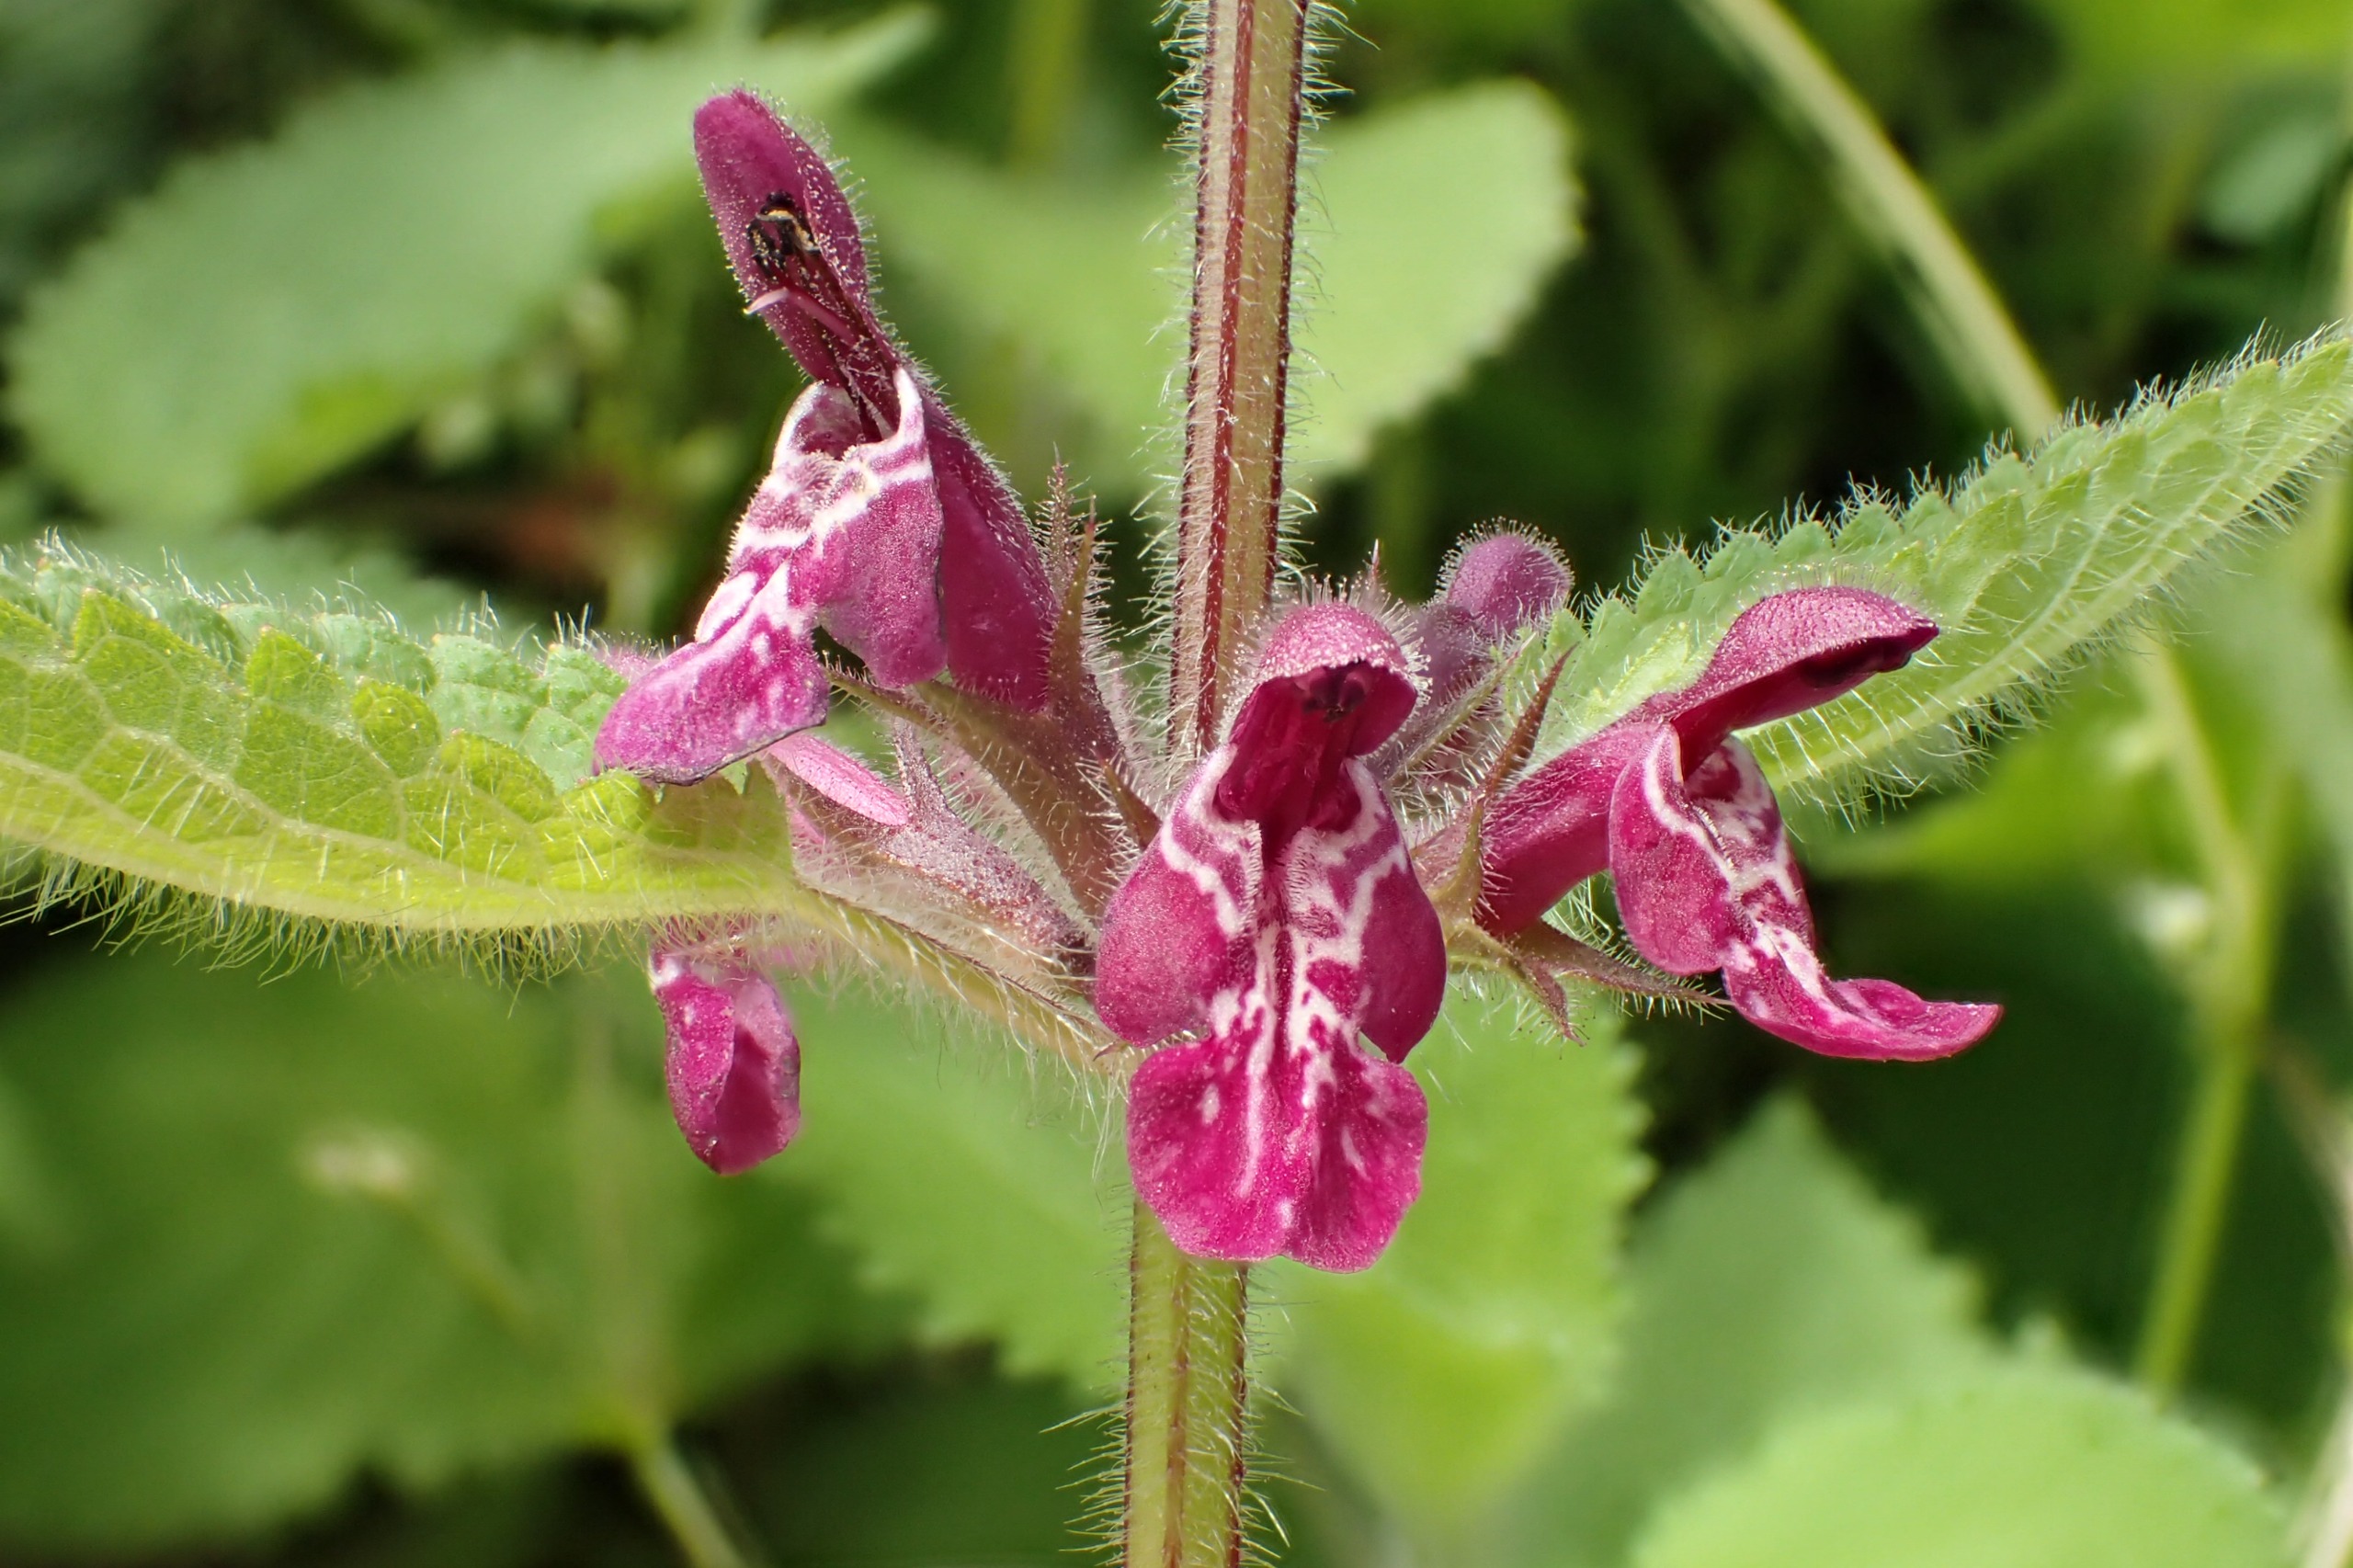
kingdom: Plantae
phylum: Tracheophyta
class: Magnoliopsida
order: Lamiales
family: Lamiaceae
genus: Stachys
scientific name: Stachys sylvatica
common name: Skov-galtetand
